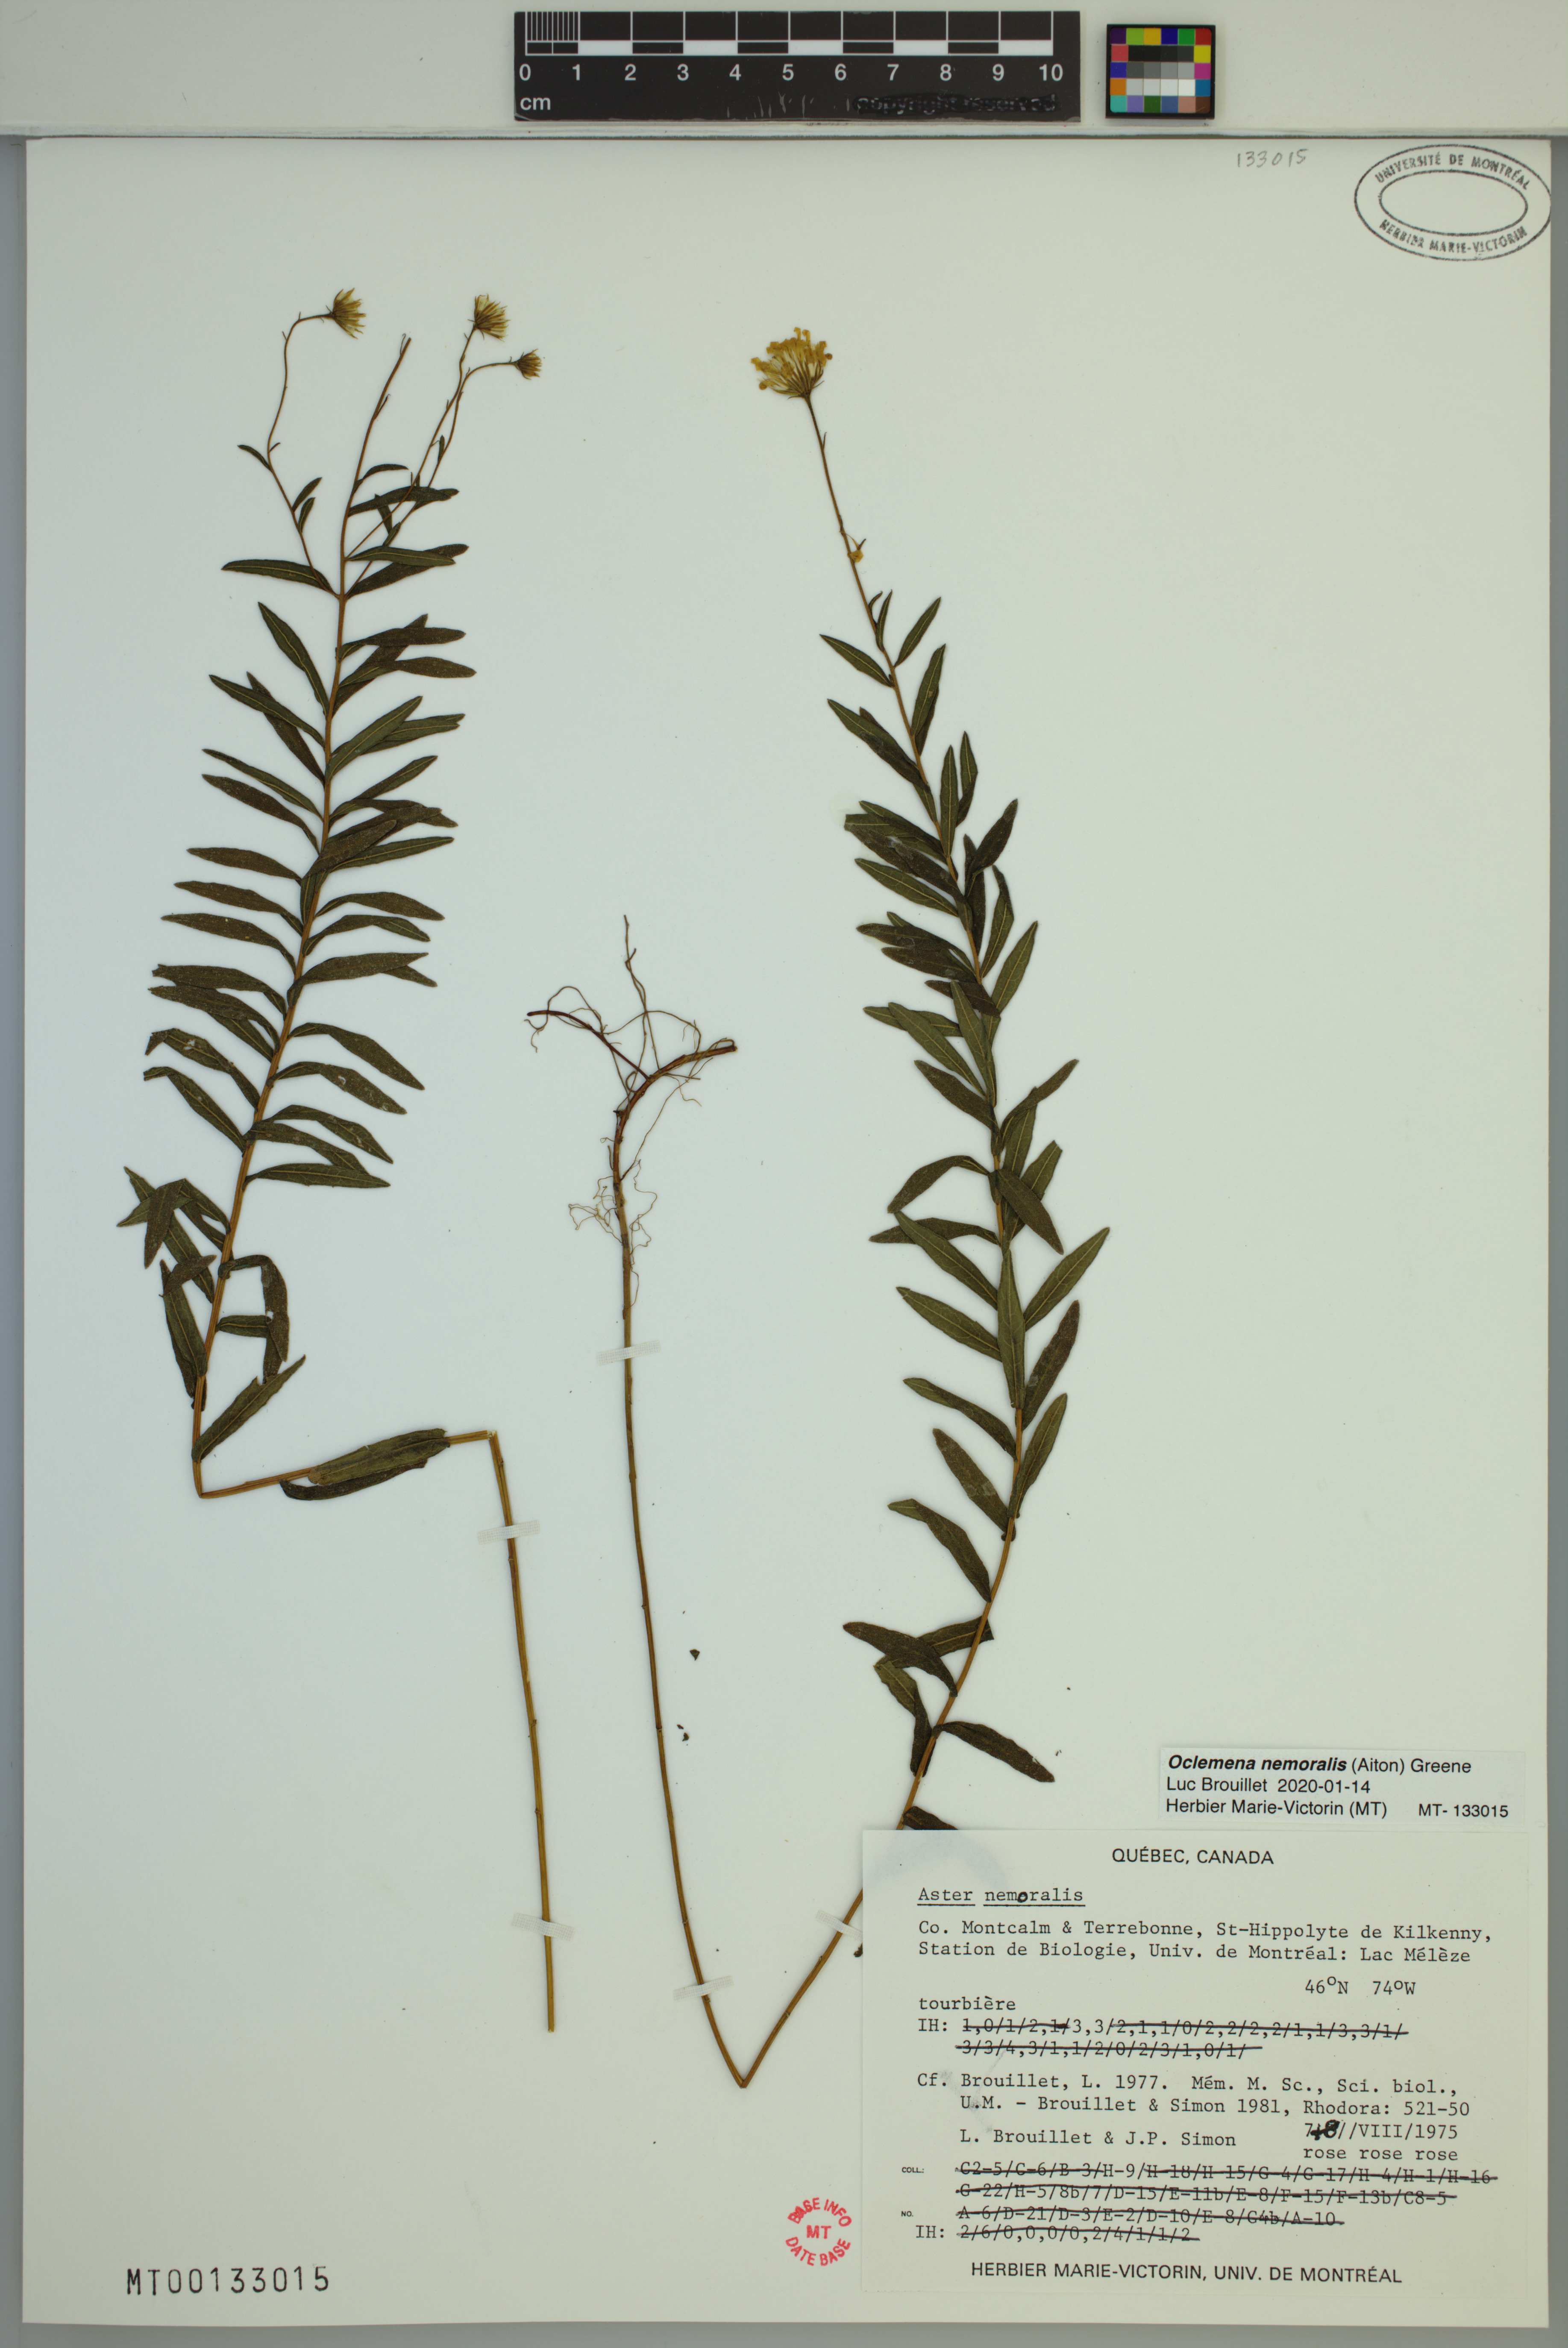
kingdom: Plantae
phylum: Tracheophyta
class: Magnoliopsida
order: Asterales
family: Asteraceae
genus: Oclemena
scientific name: Oclemena nemoralis
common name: Bog aster
